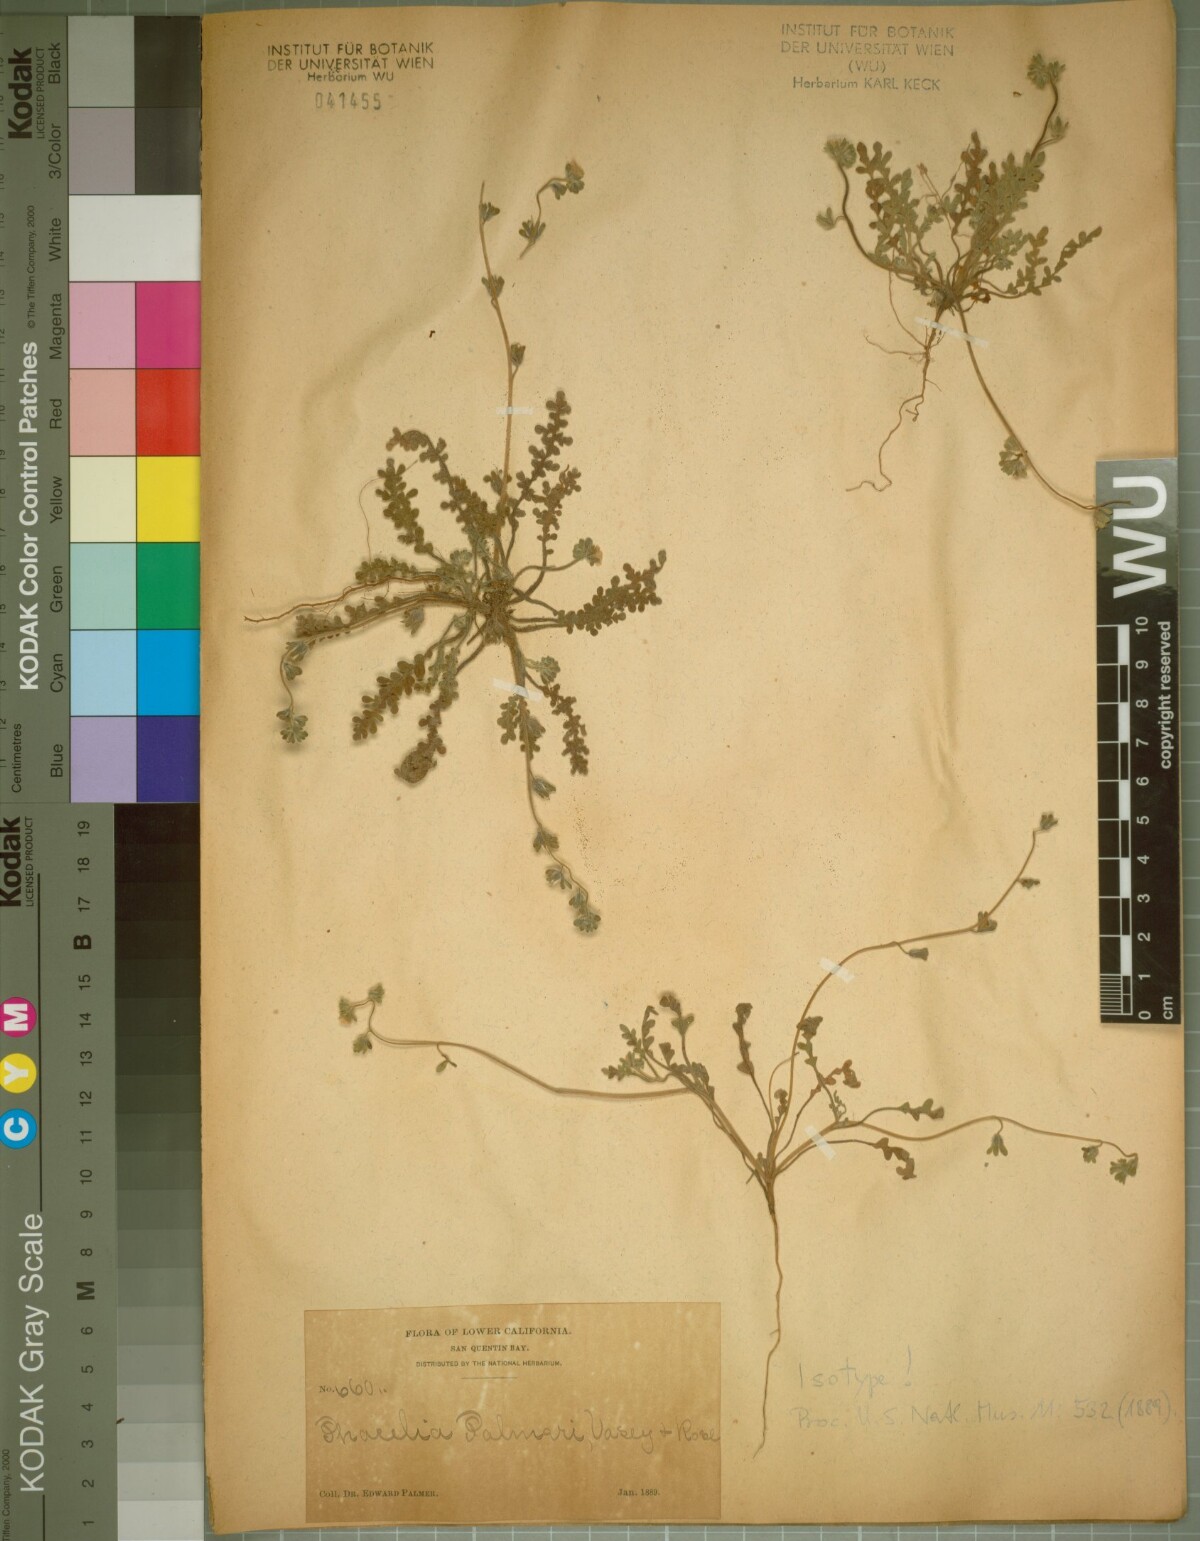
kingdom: Plantae
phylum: Tracheophyta
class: Magnoliopsida
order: Boraginales
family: Hydrophyllaceae
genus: Phacelia
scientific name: Phacelia palmeri
